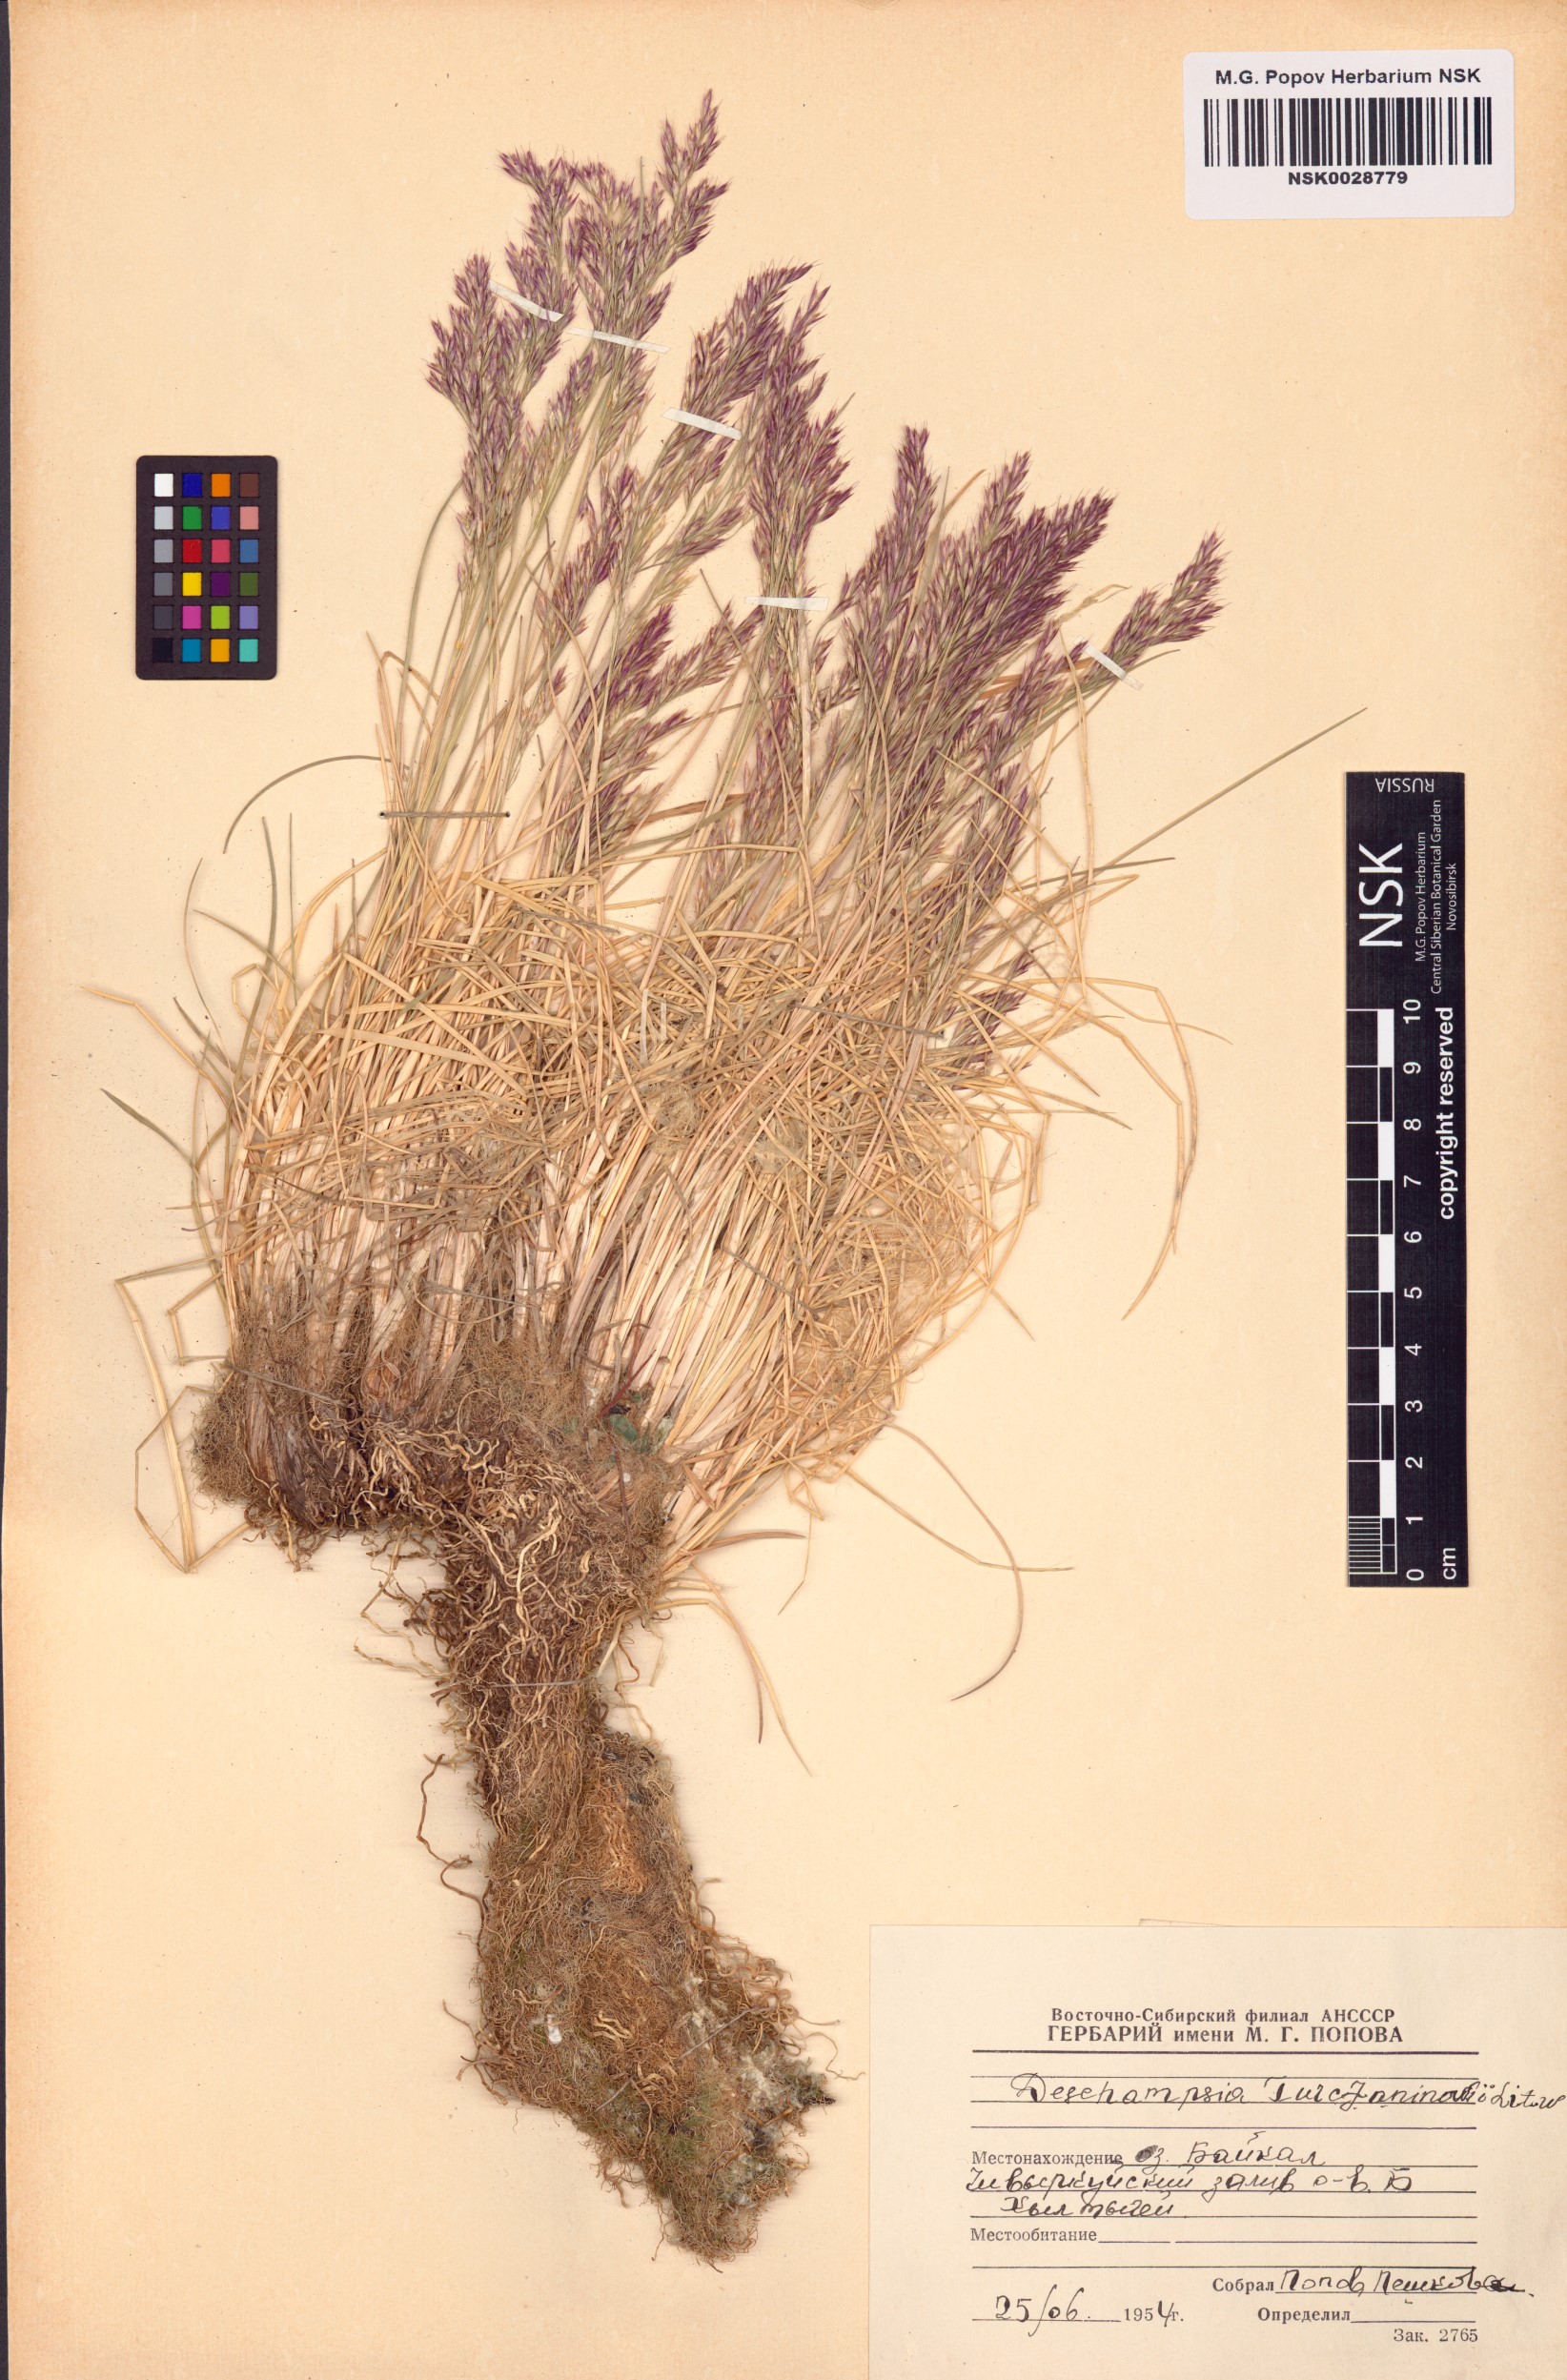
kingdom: Plantae
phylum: Tracheophyta
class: Liliopsida
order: Poales
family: Poaceae
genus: Deschampsia
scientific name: Deschampsia cespitosa
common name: Tufted hair-grass
